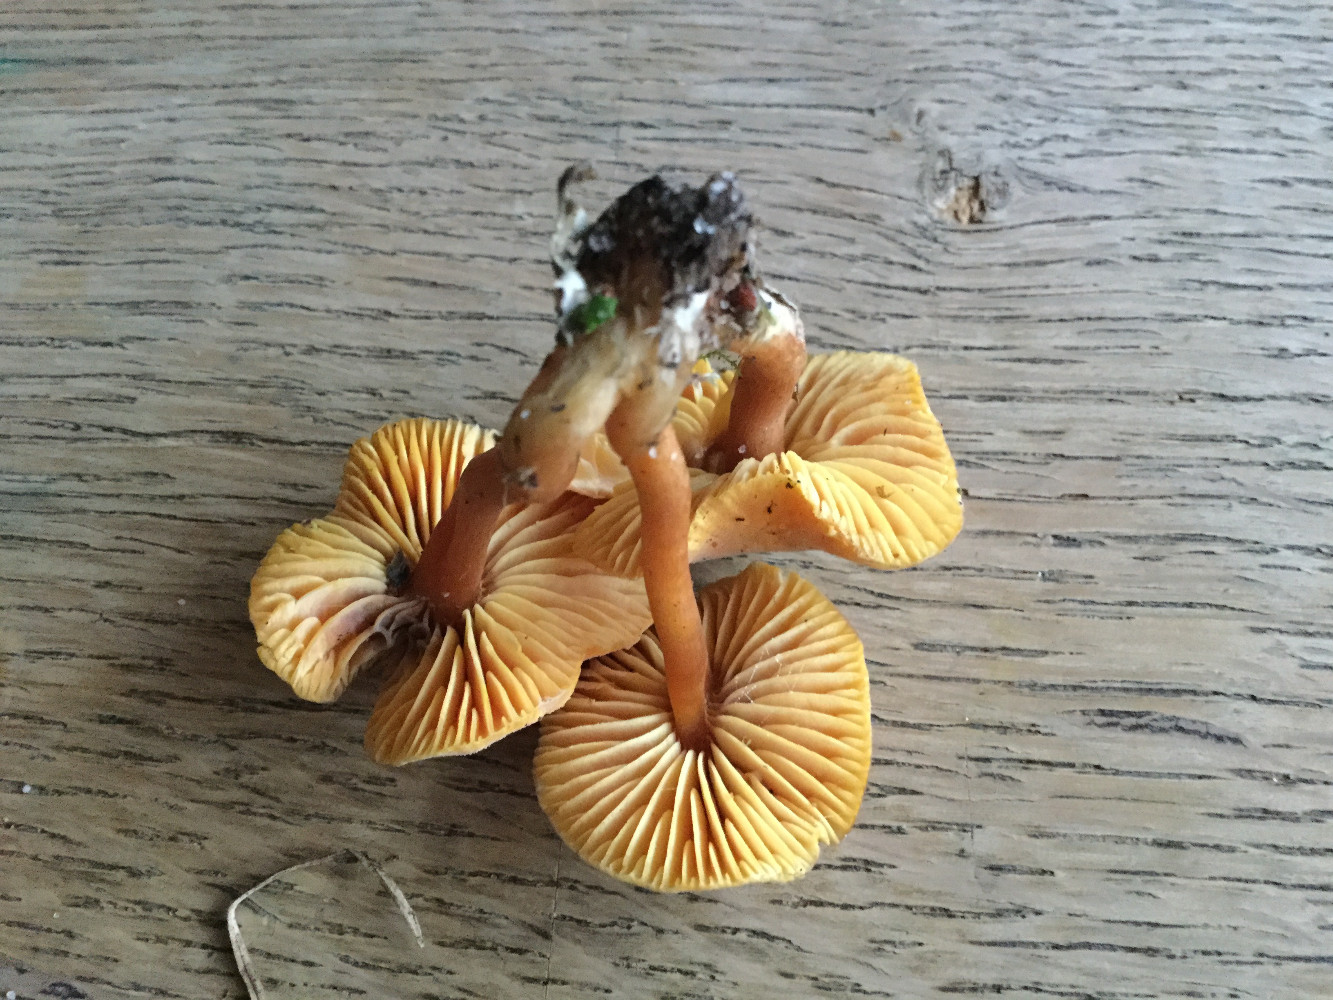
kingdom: Fungi
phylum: Basidiomycota
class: Agaricomycetes
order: Agaricales
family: Hygrophoraceae
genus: Hygrocybe
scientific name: Hygrocybe miniata
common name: mønje-vokshat
